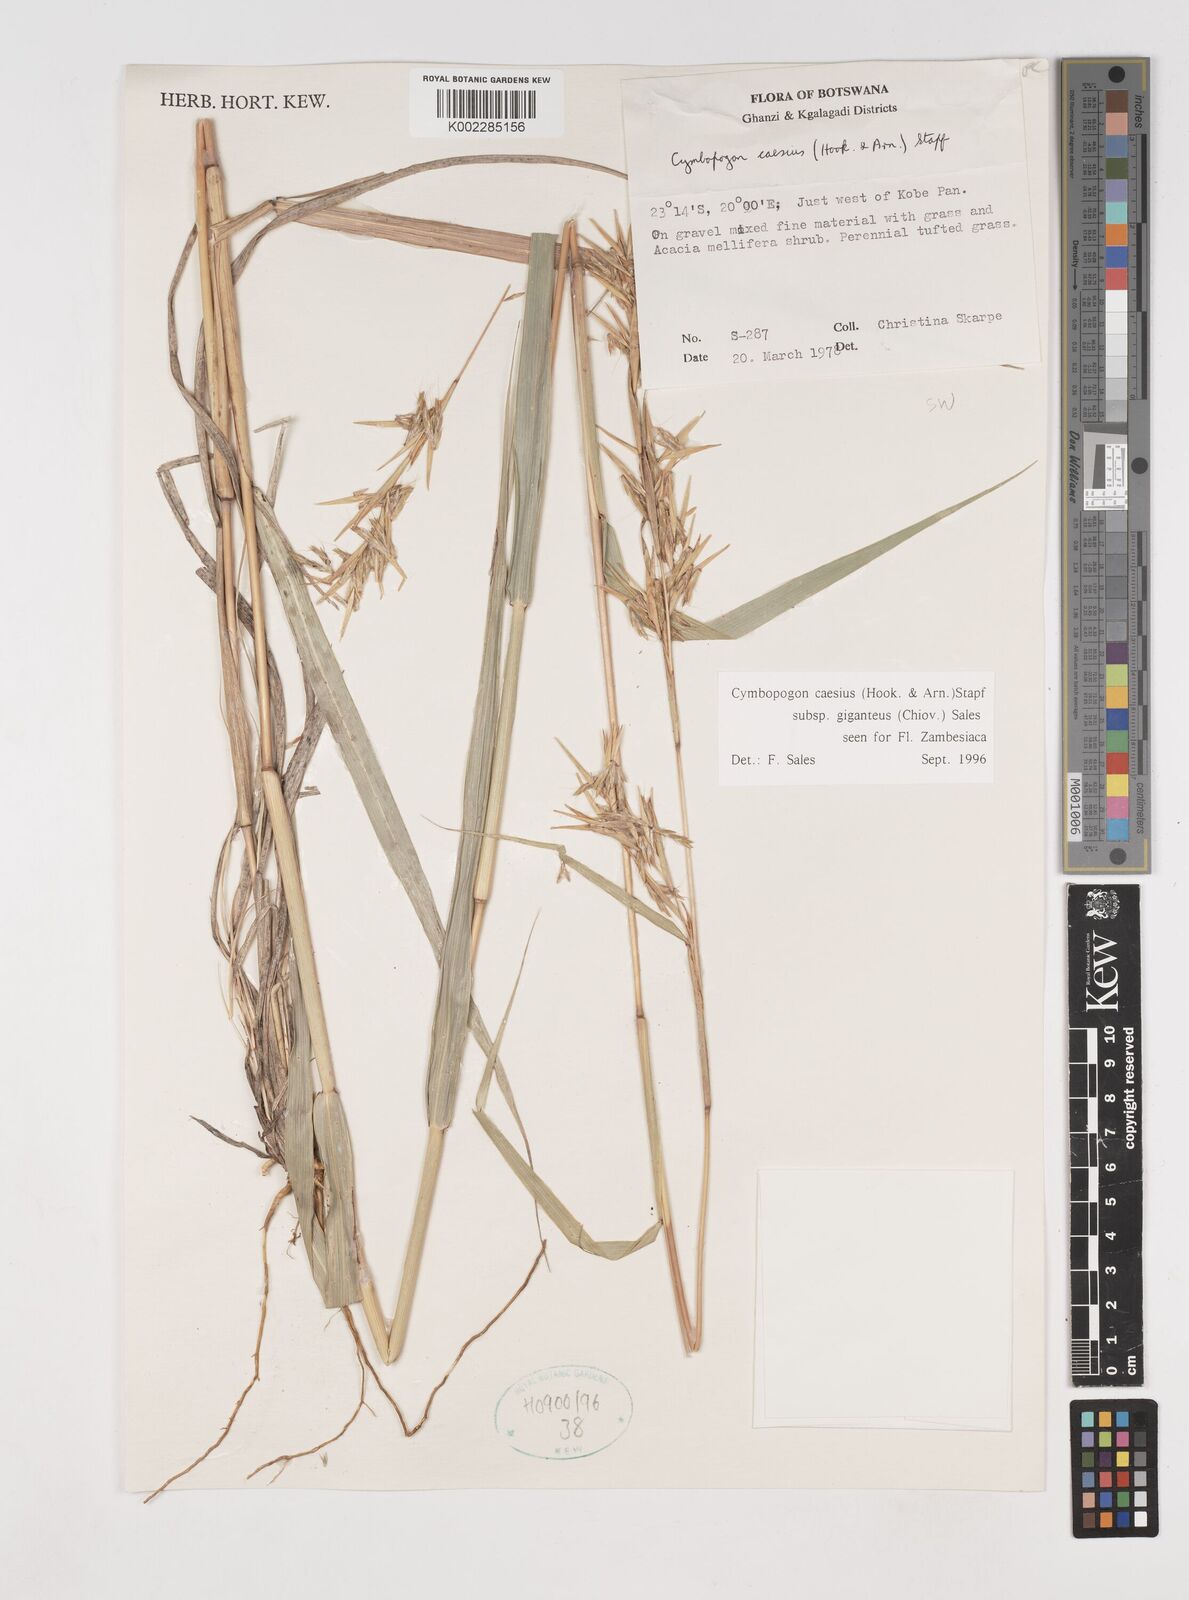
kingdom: Plantae
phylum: Tracheophyta
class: Liliopsida
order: Poales
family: Poaceae
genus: Cymbopogon
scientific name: Cymbopogon giganteus
